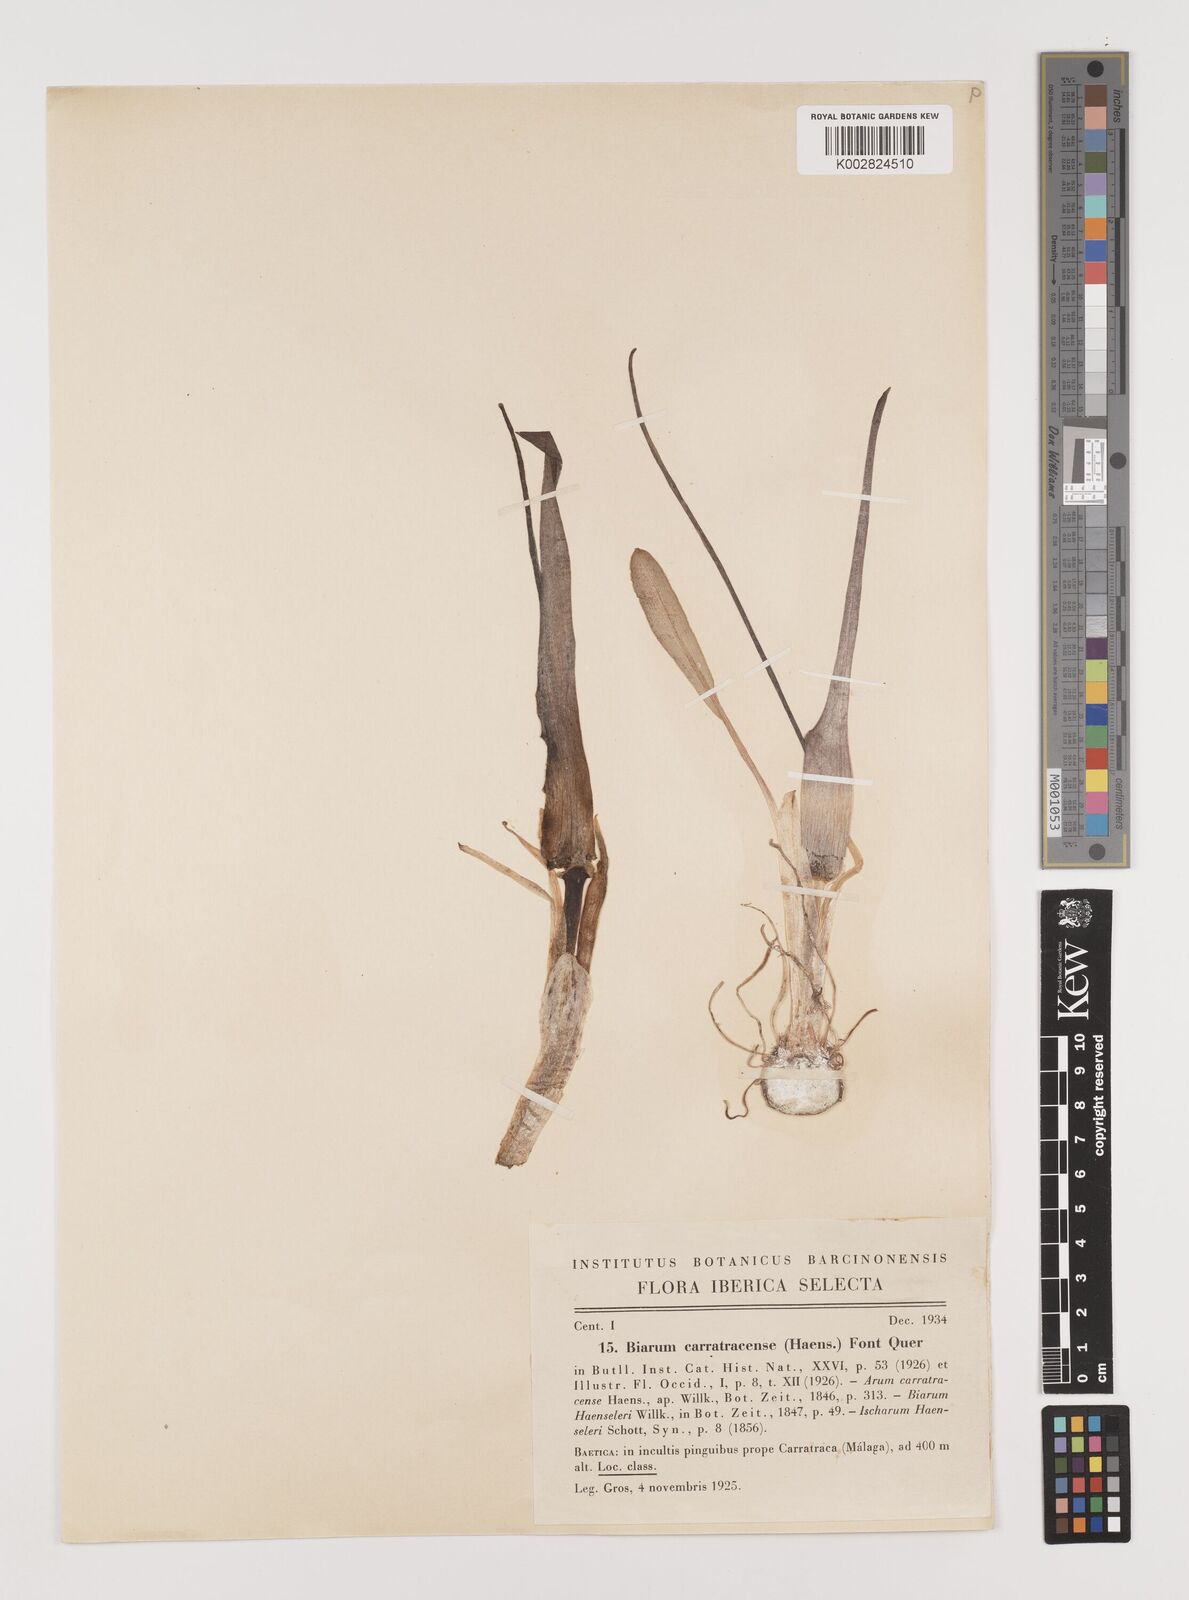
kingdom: Plantae
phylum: Tracheophyta
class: Liliopsida
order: Alismatales
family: Araceae
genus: Biarum
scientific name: Biarum carratracense
